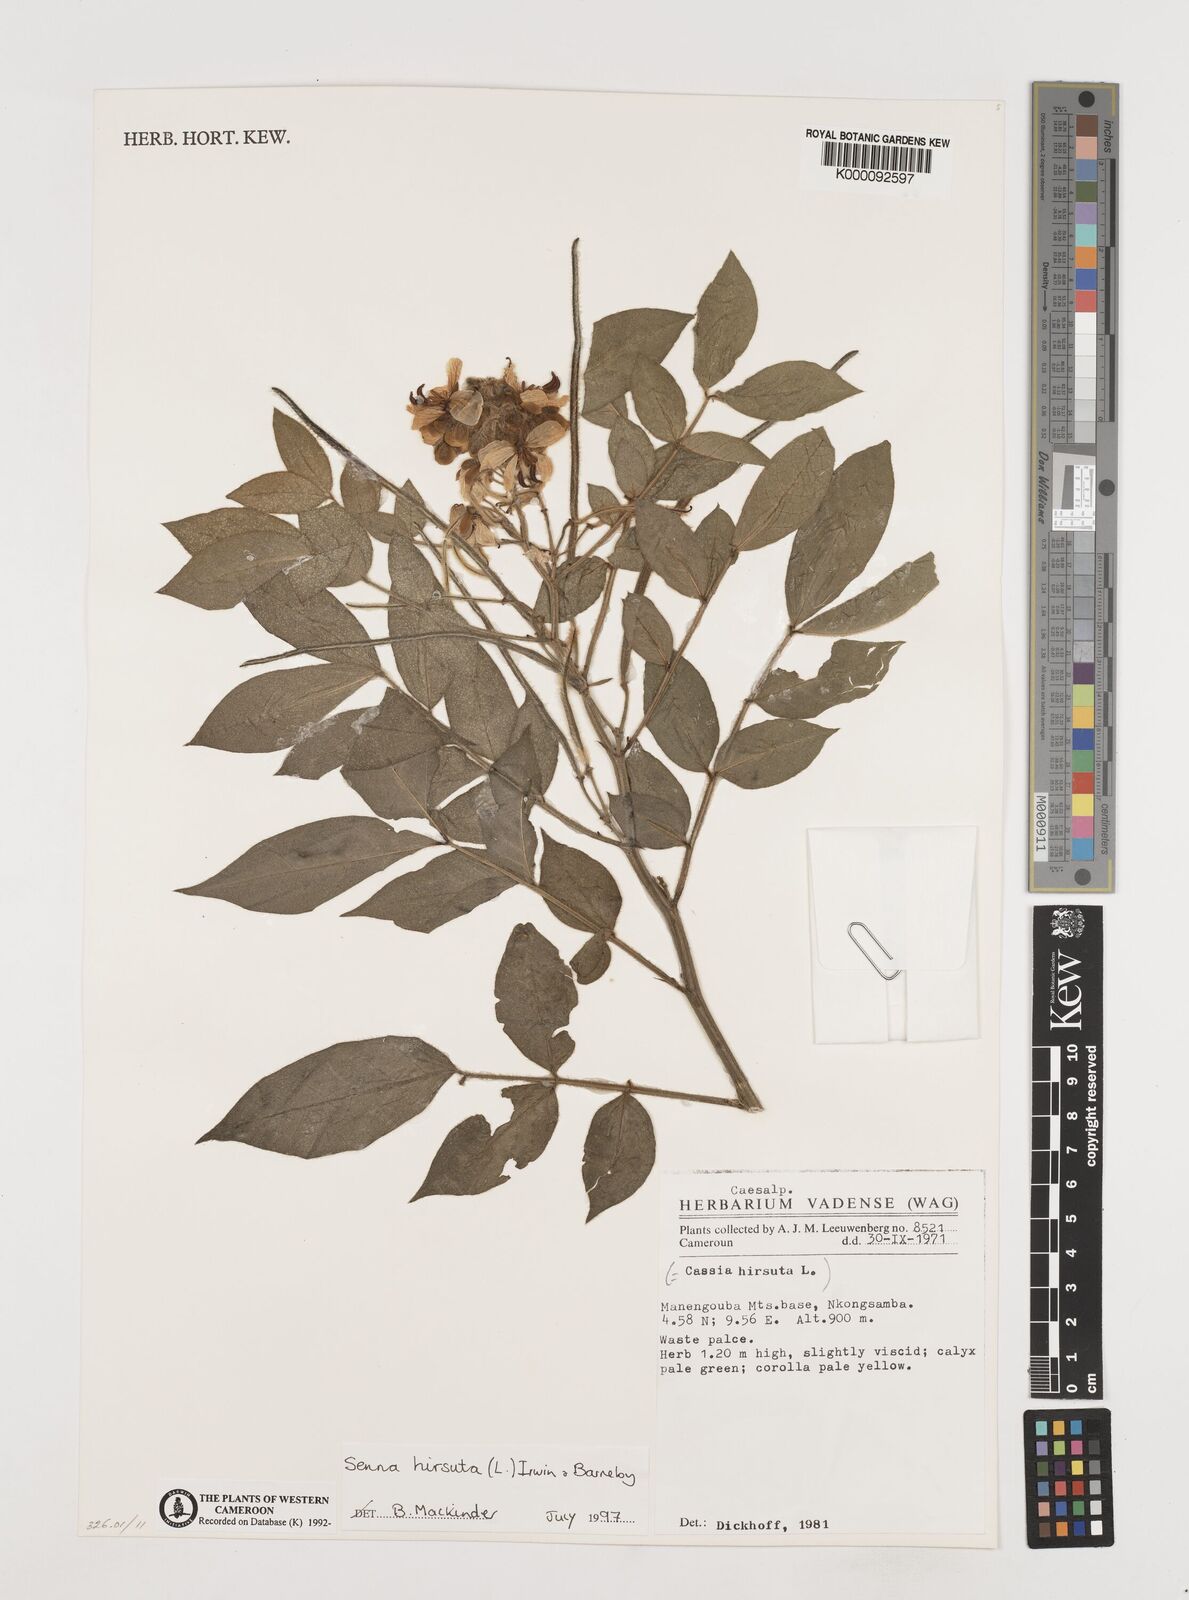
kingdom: Plantae
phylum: Tracheophyta
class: Magnoliopsida
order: Fabales
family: Fabaceae
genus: Senna
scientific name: Senna hirsuta
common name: Woolly senna
